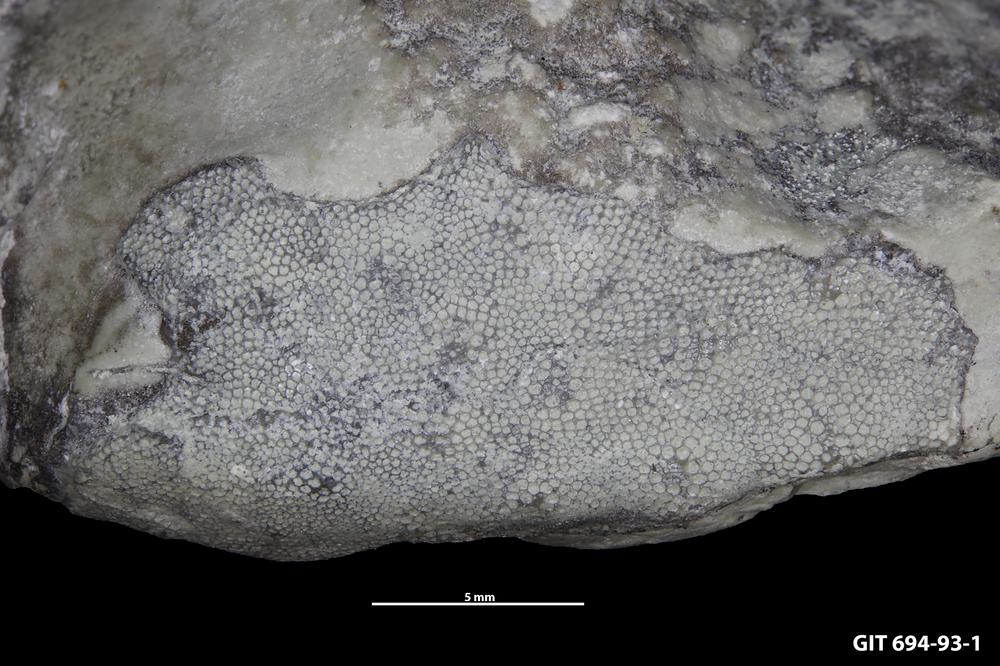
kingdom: Animalia
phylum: Bryozoa
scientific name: Bryozoa
